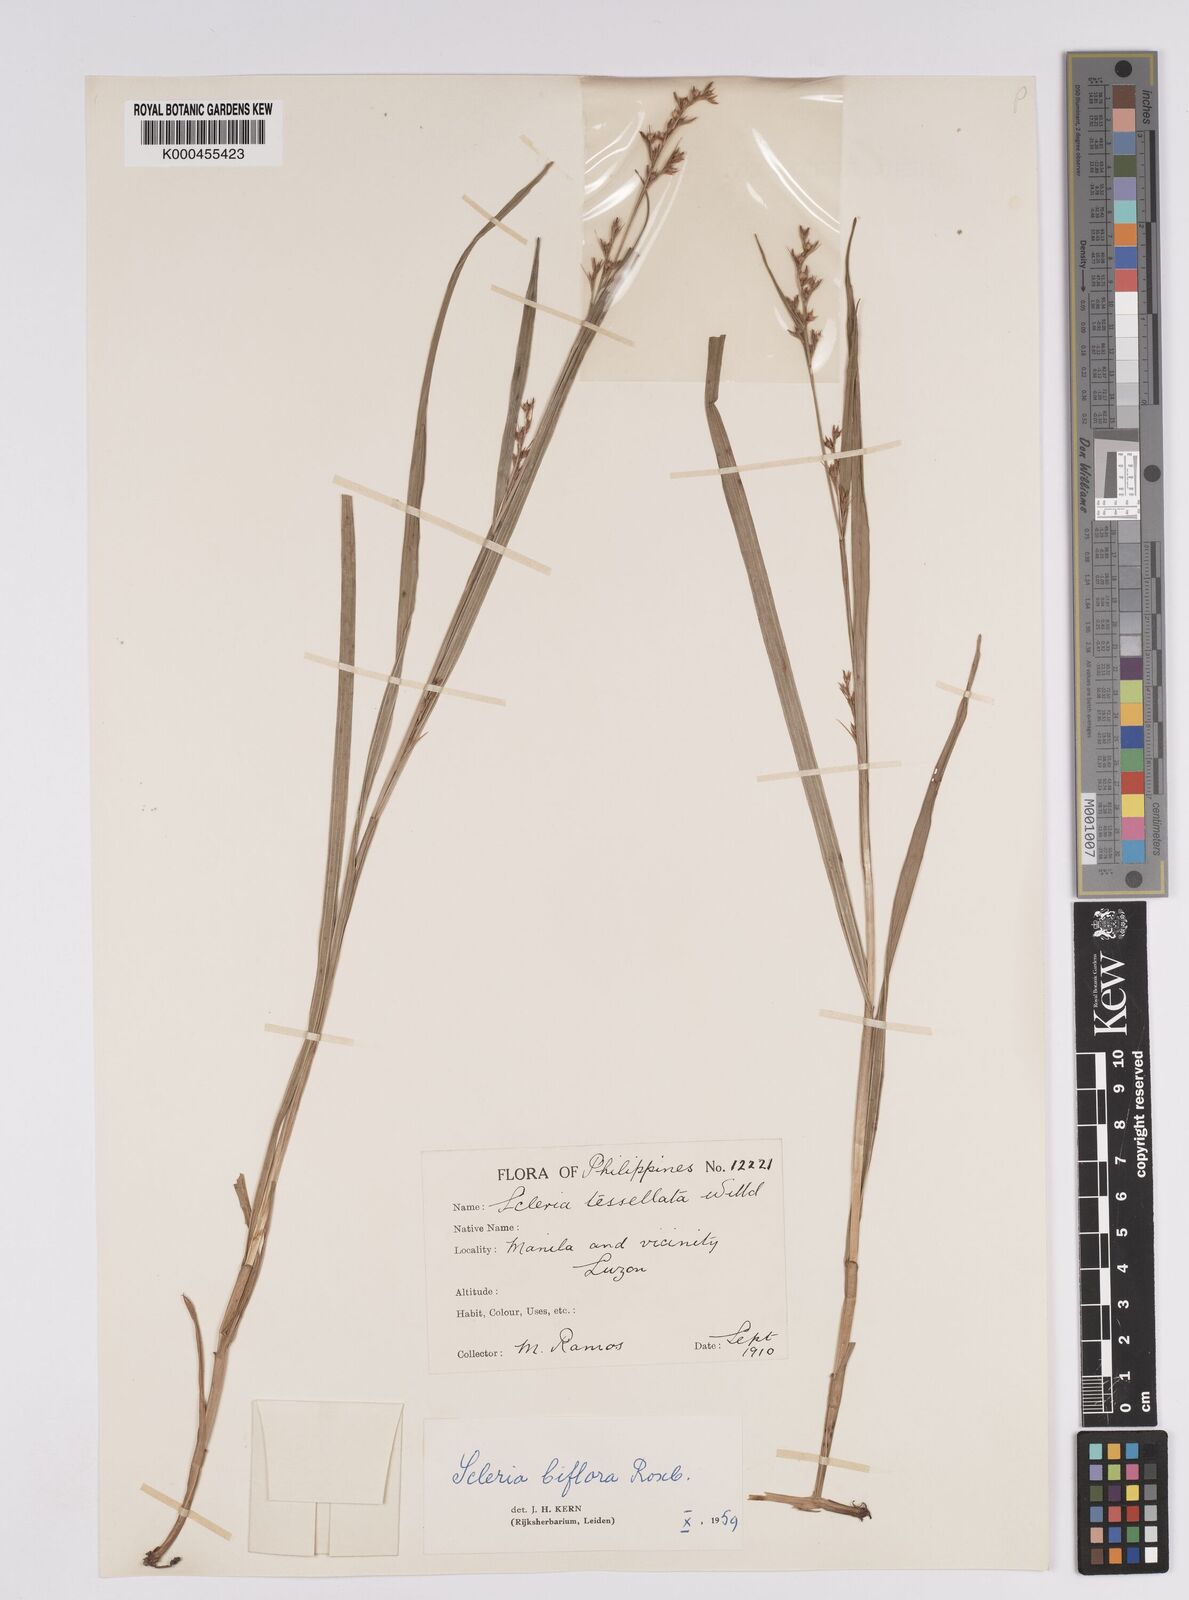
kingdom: Plantae
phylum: Tracheophyta
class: Liliopsida
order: Poales
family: Cyperaceae
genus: Scleria
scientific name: Scleria biflora
